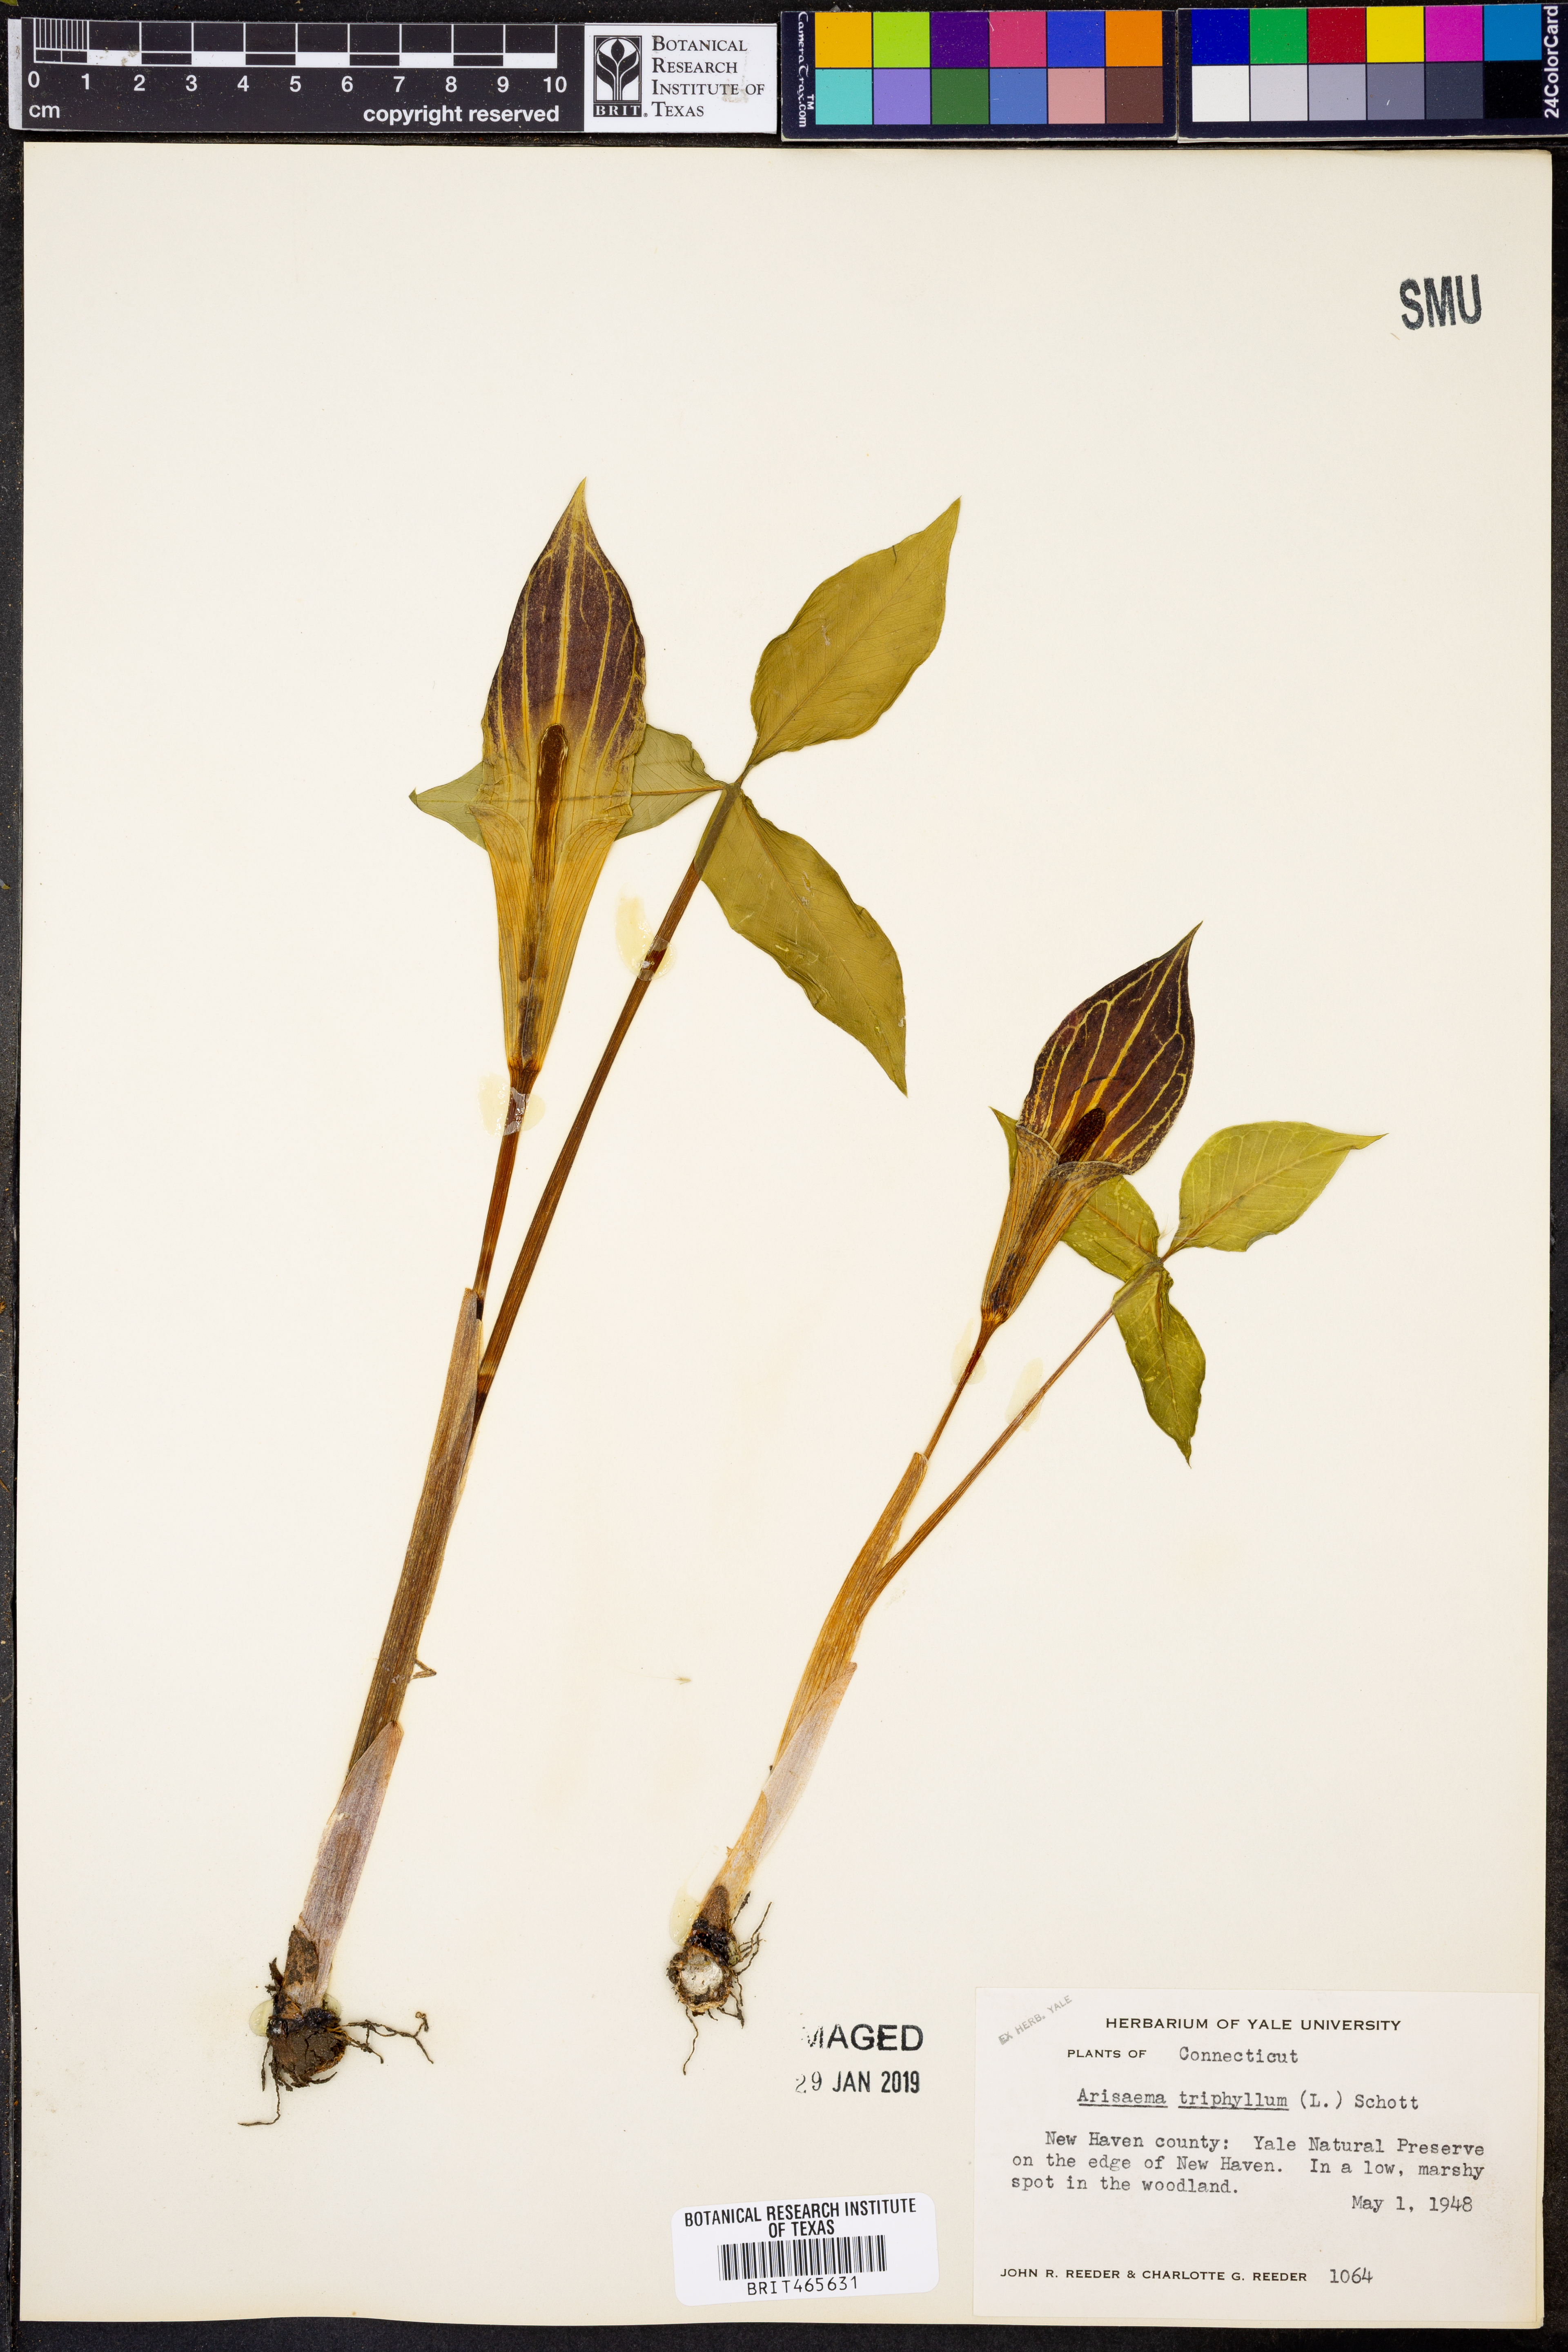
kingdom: Plantae
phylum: Tracheophyta
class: Liliopsida
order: Alismatales
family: Araceae
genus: Arisaema
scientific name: Arisaema triphyllum
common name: Jack-in-the-pulpit
